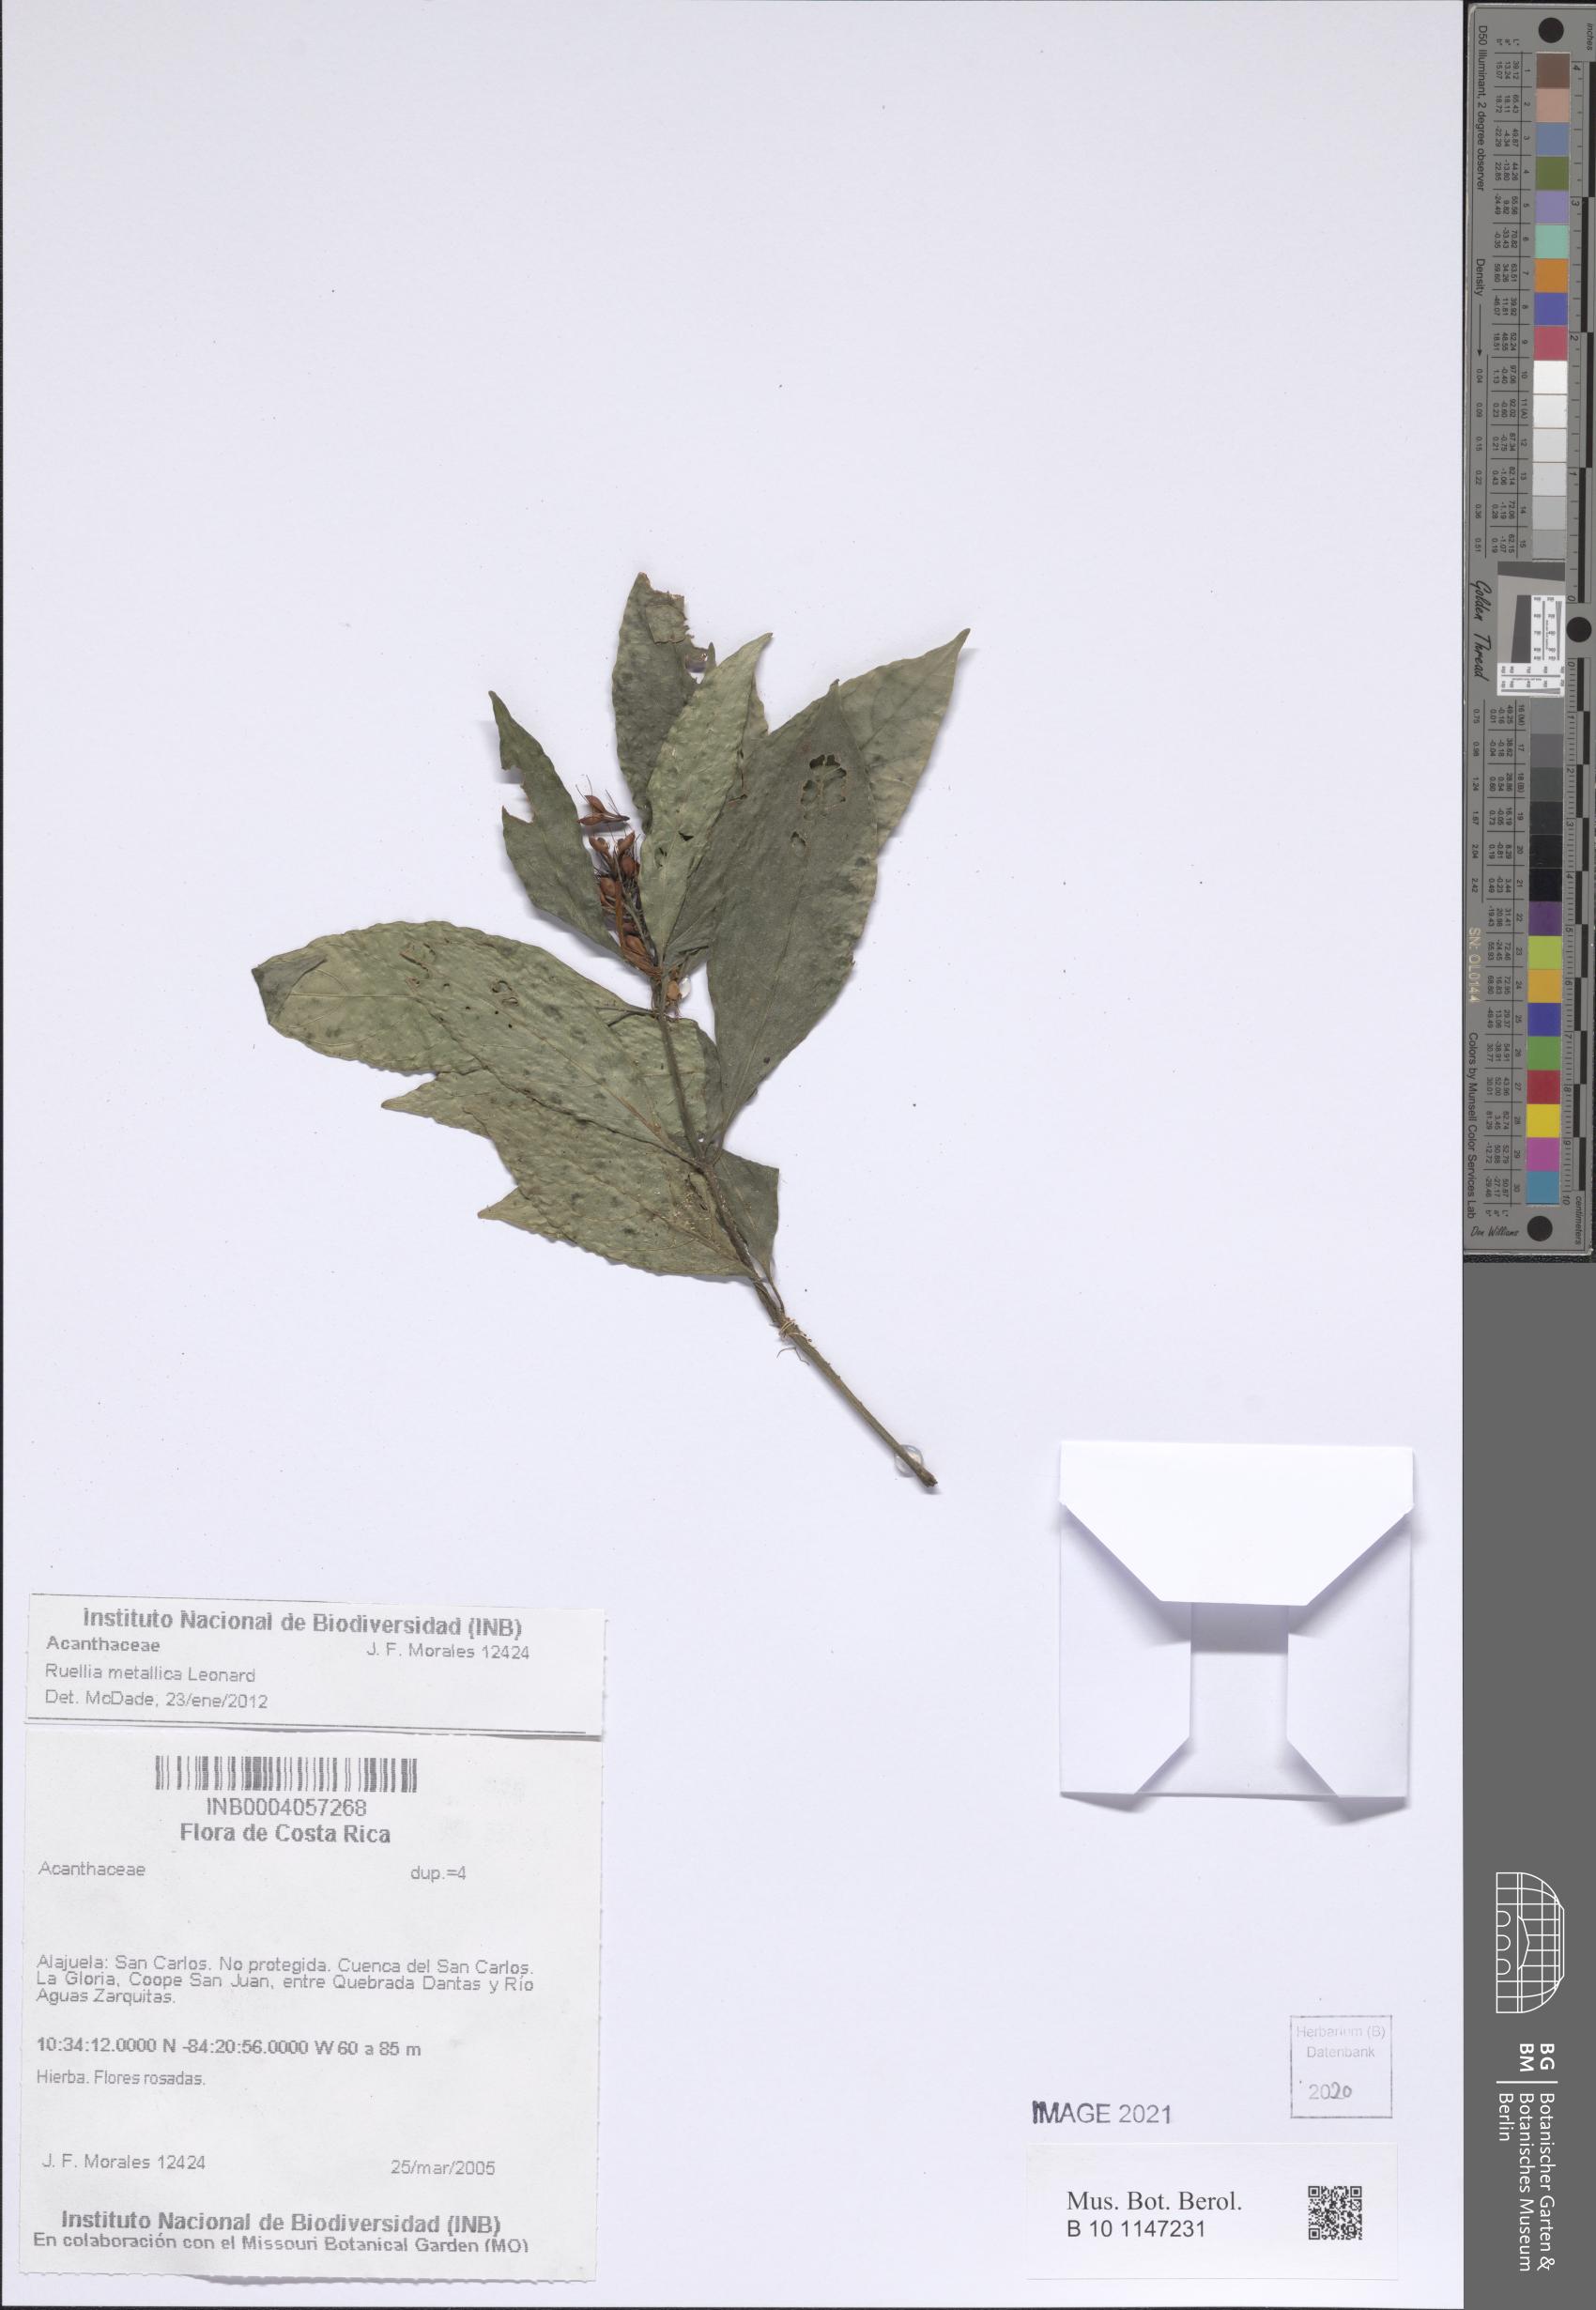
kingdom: Plantae
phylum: Tracheophyta
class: Magnoliopsida
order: Lamiales
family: Acanthaceae
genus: Ruellia
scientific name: Ruellia metallica
